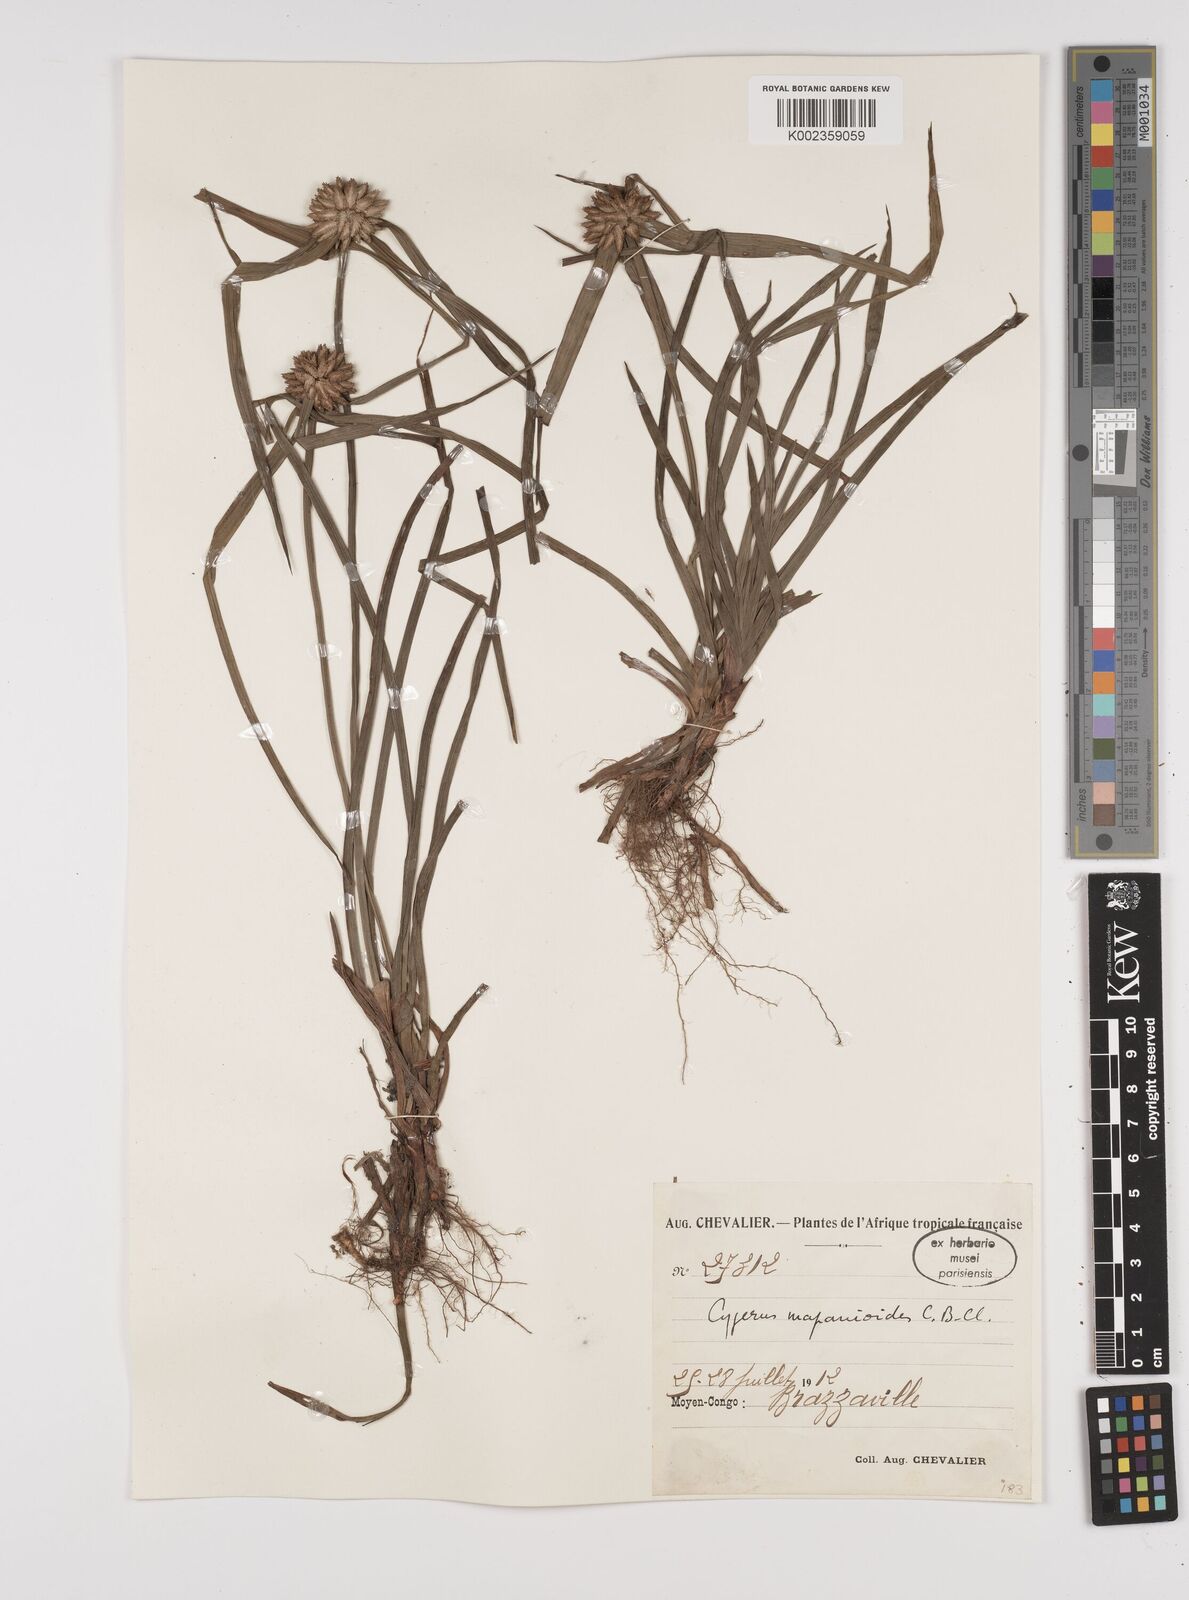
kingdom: Plantae
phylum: Tracheophyta
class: Liliopsida
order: Poales
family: Cyperaceae
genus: Cyperus
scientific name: Cyperus mapanioides
